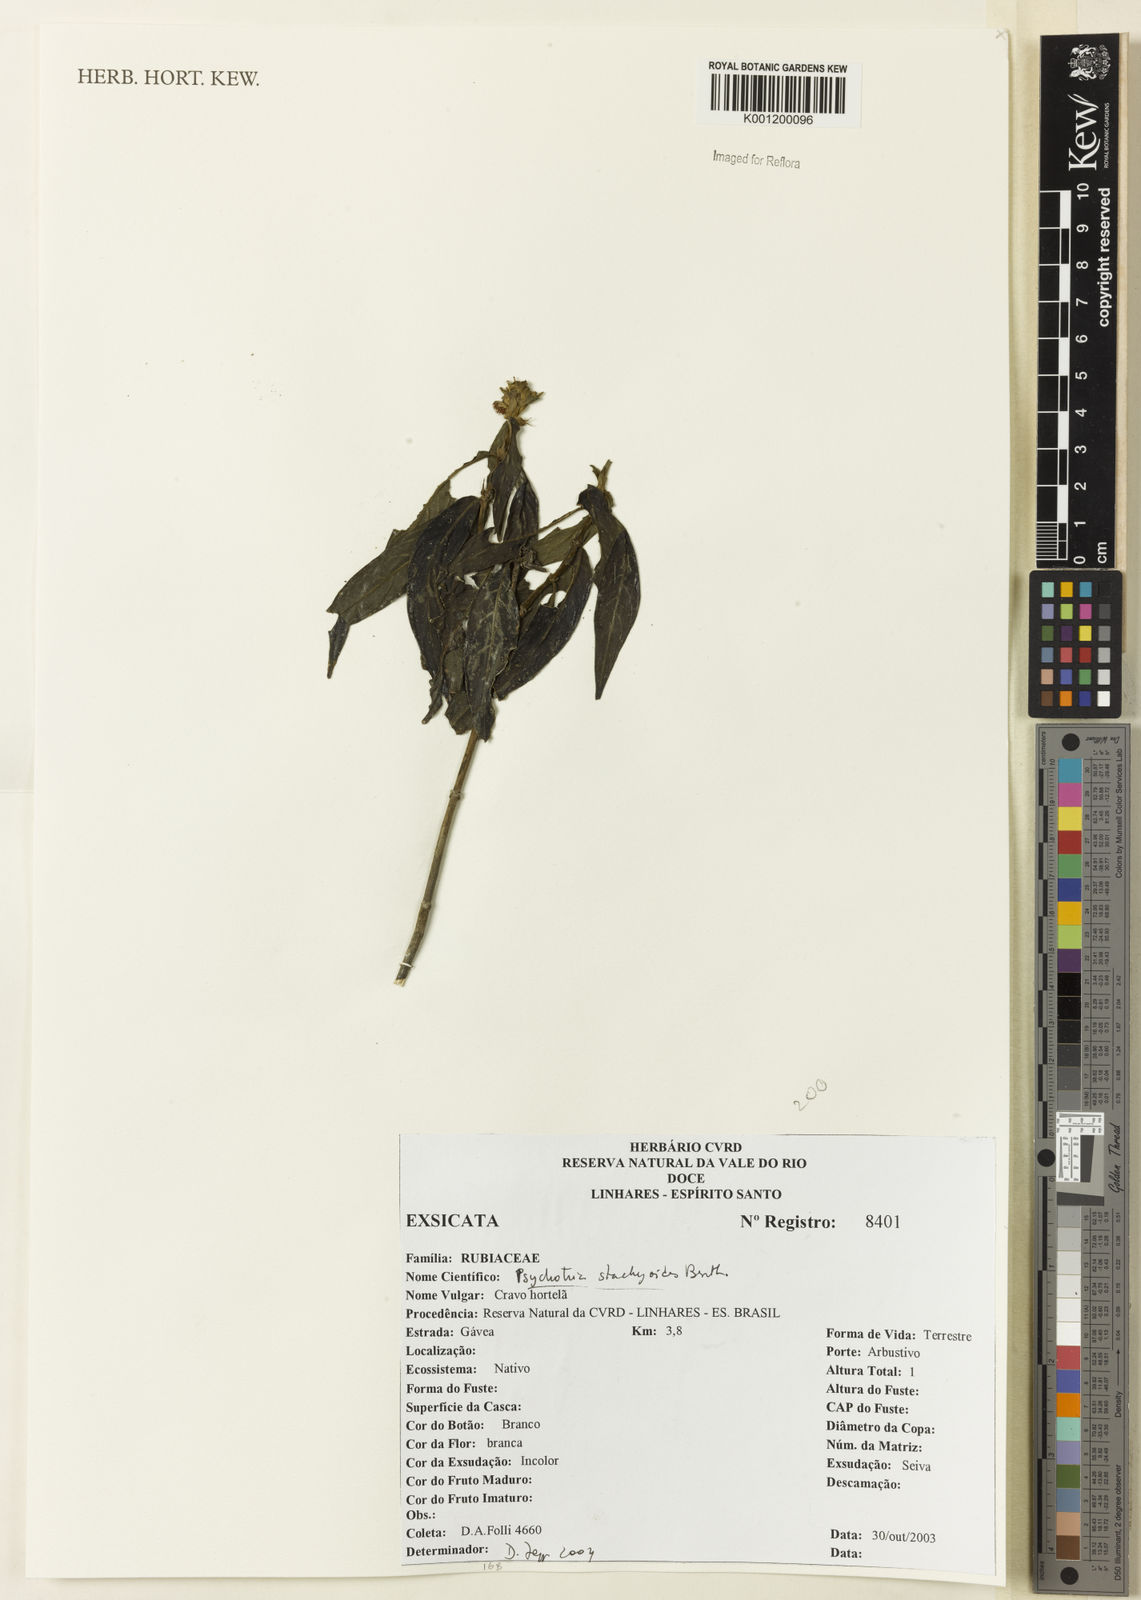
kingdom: Plantae
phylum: Tracheophyta
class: Magnoliopsida
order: Gentianales
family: Rubiaceae
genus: Psychotria
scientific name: Psychotria stachyoides
